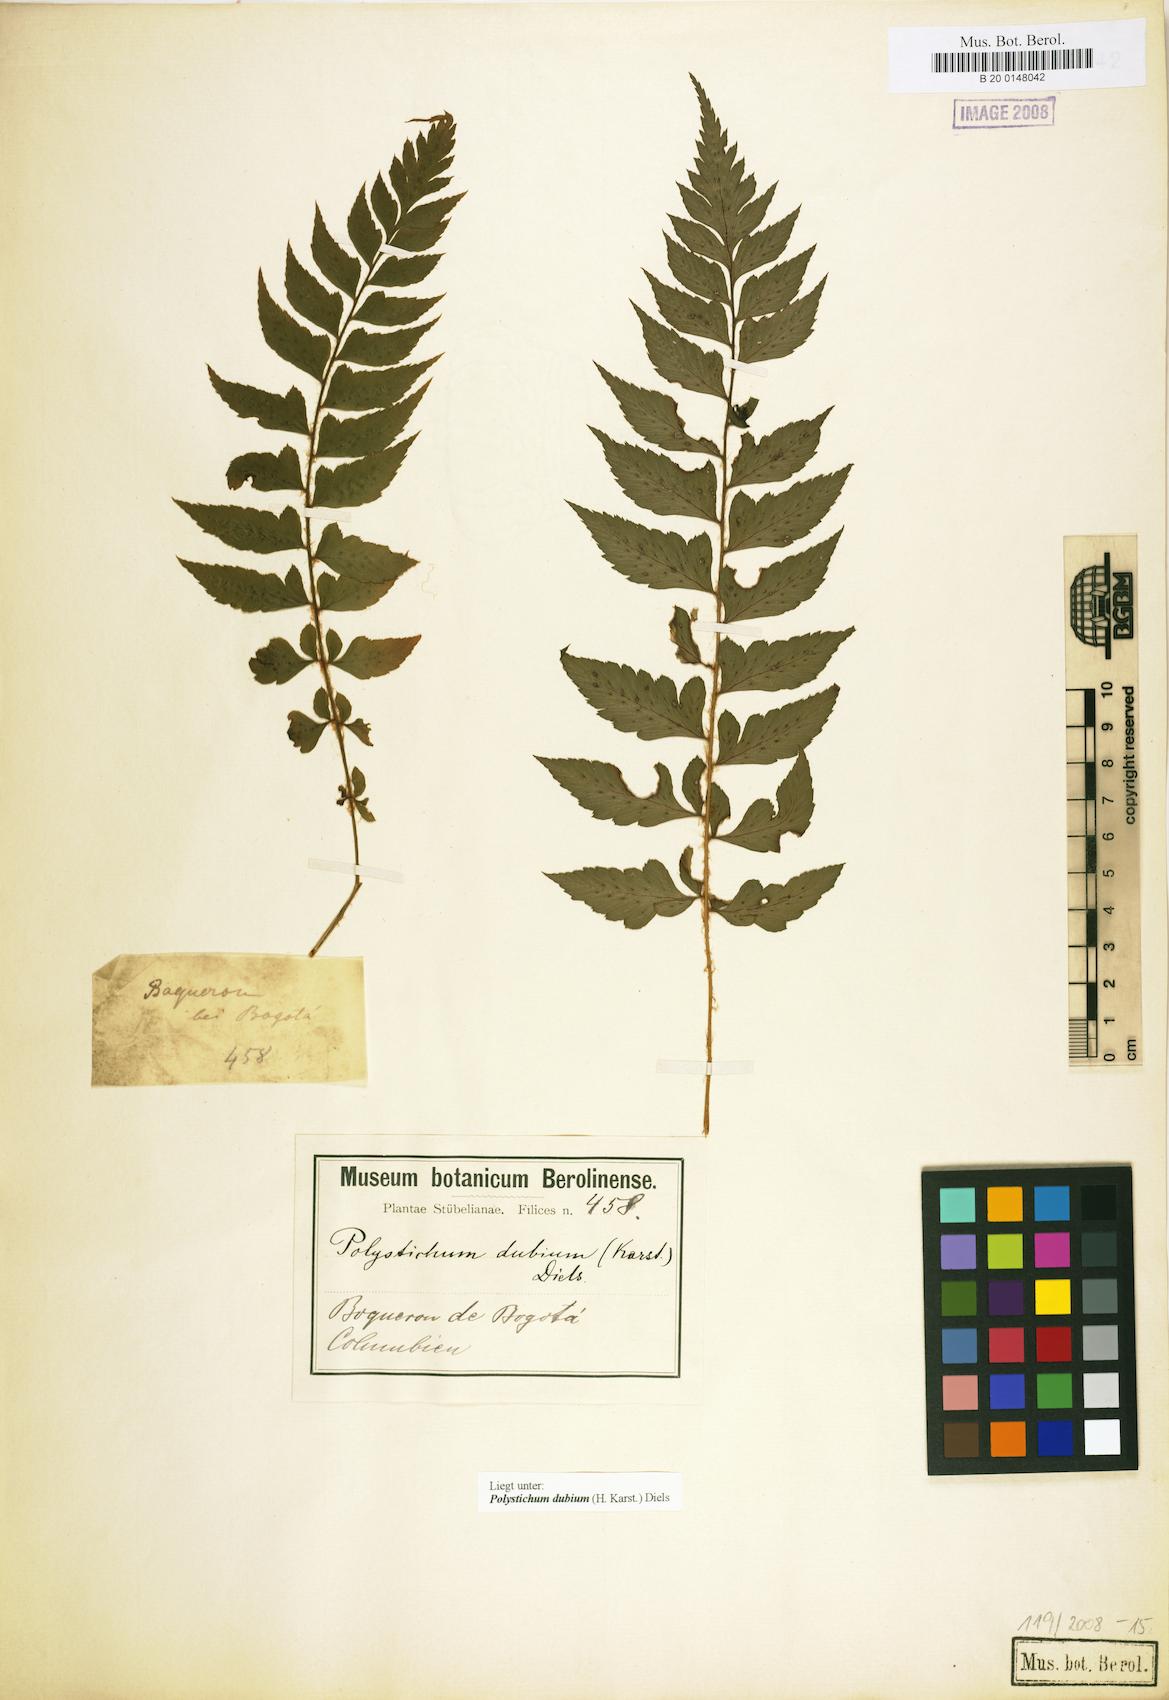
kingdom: Plantae
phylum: Tracheophyta
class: Polypodiopsida
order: Polypodiales
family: Dryopteridaceae
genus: Polystichum
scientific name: Polystichum dubium
